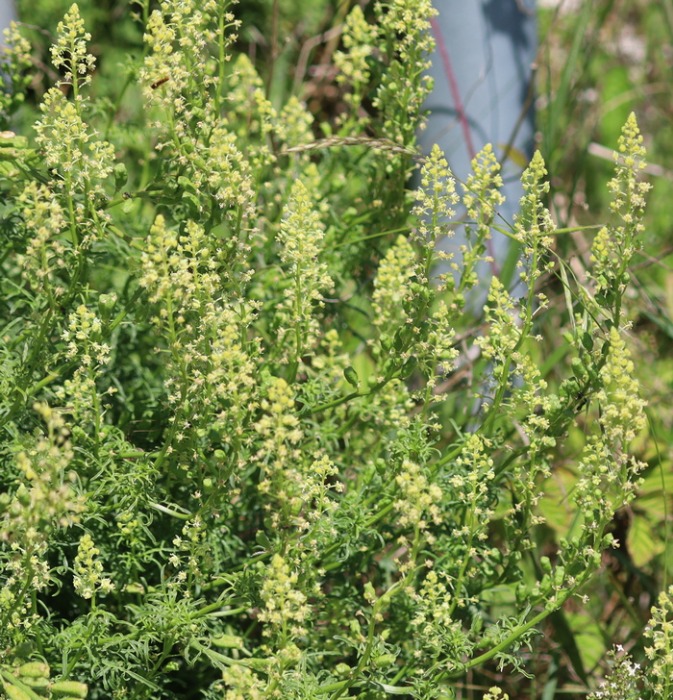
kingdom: Plantae
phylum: Tracheophyta
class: Magnoliopsida
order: Brassicales
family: Resedaceae
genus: Reseda
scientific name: Reseda lutea
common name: Gul reseda
